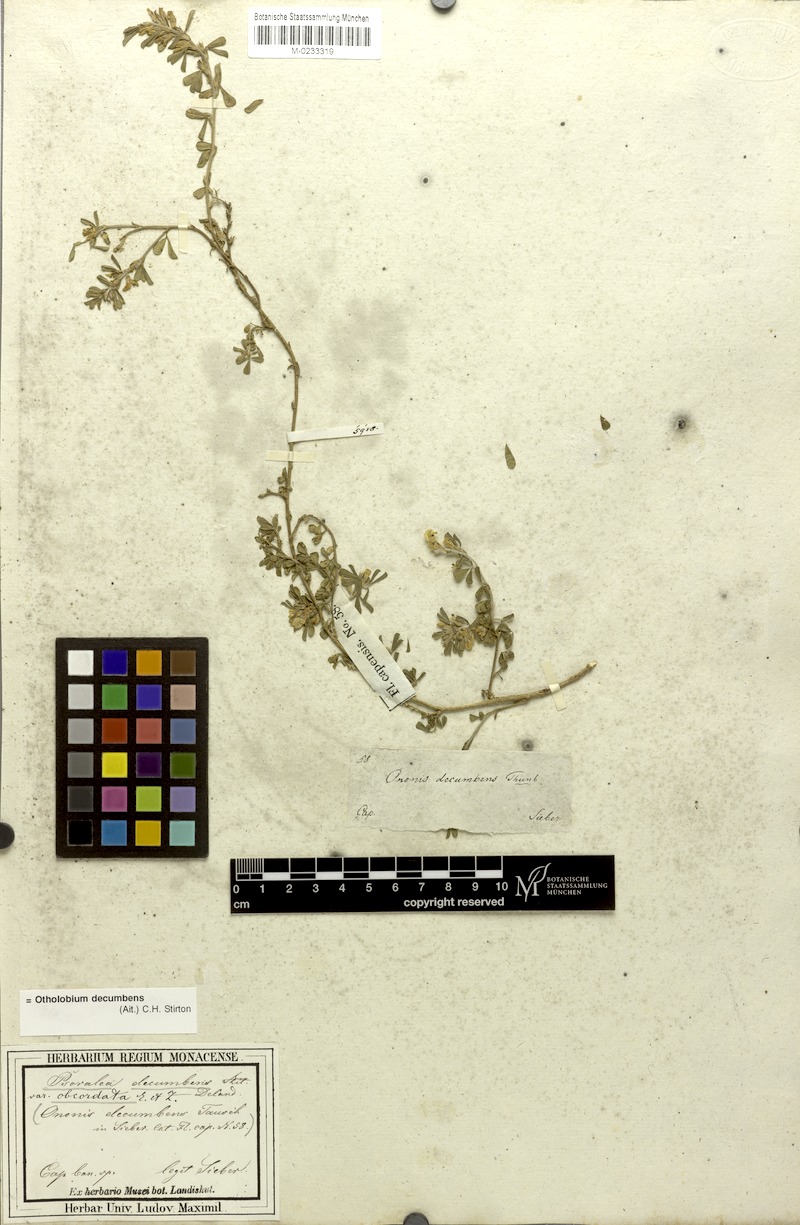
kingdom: Plantae
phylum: Tracheophyta
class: Magnoliopsida
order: Fabales
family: Fabaceae
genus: Psoralea
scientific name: Psoralea Otholobium decumbens
